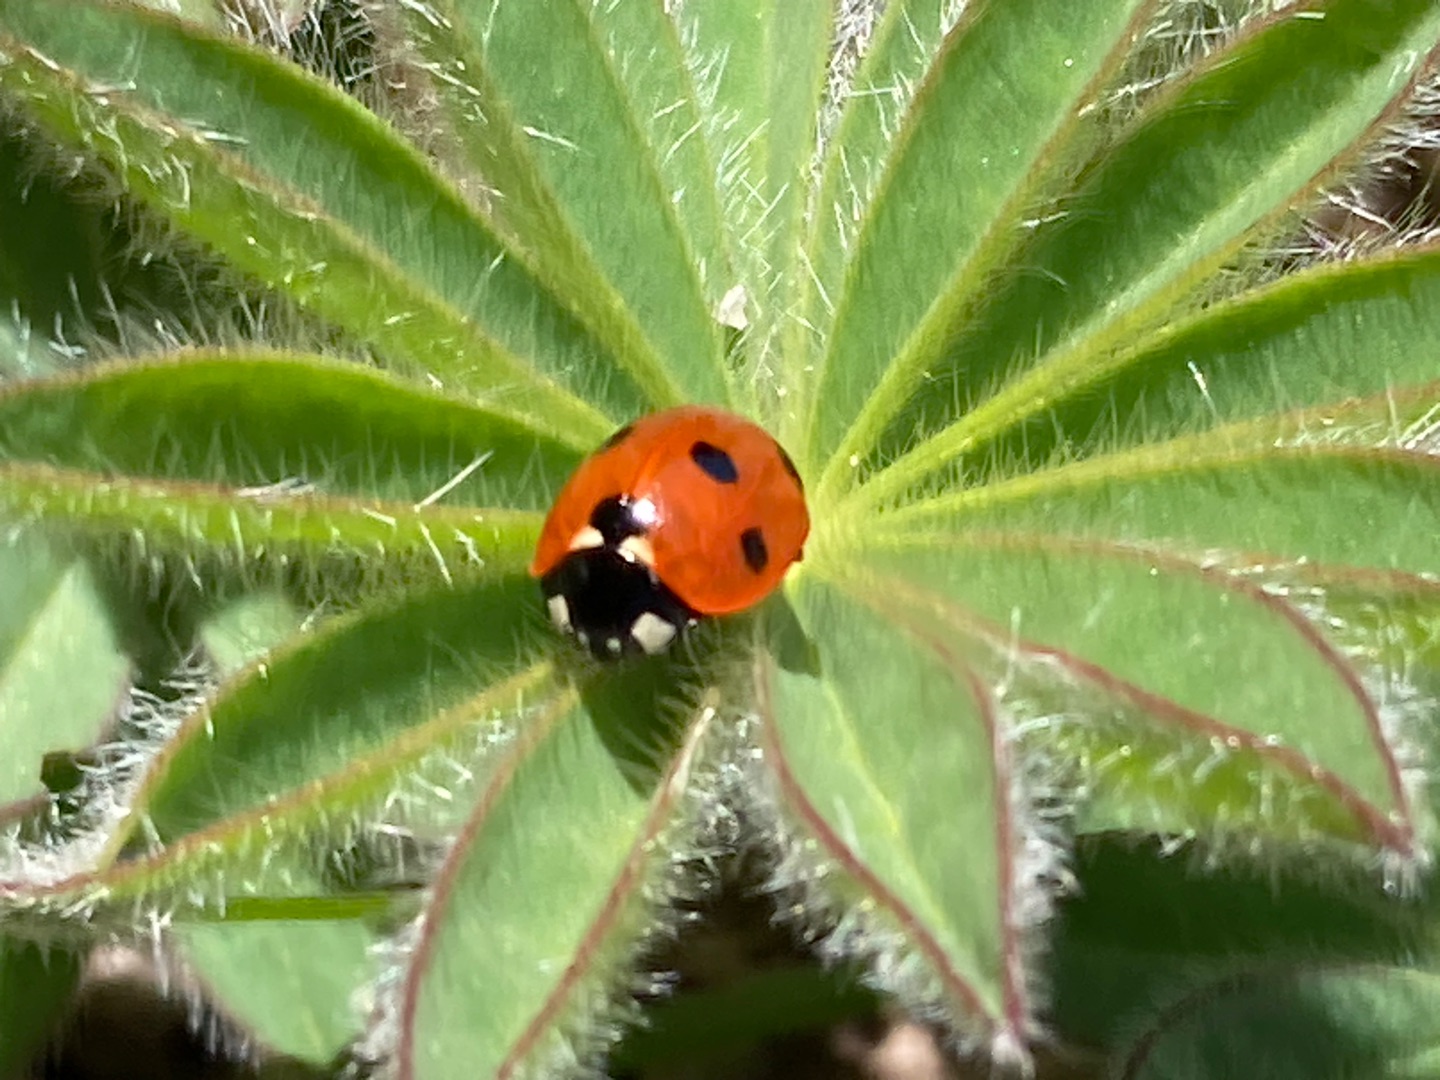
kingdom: Animalia
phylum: Arthropoda
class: Insecta
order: Coleoptera
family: Coccinellidae
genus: Coccinella
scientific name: Coccinella septempunctata
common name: Syvplettet mariehøne
